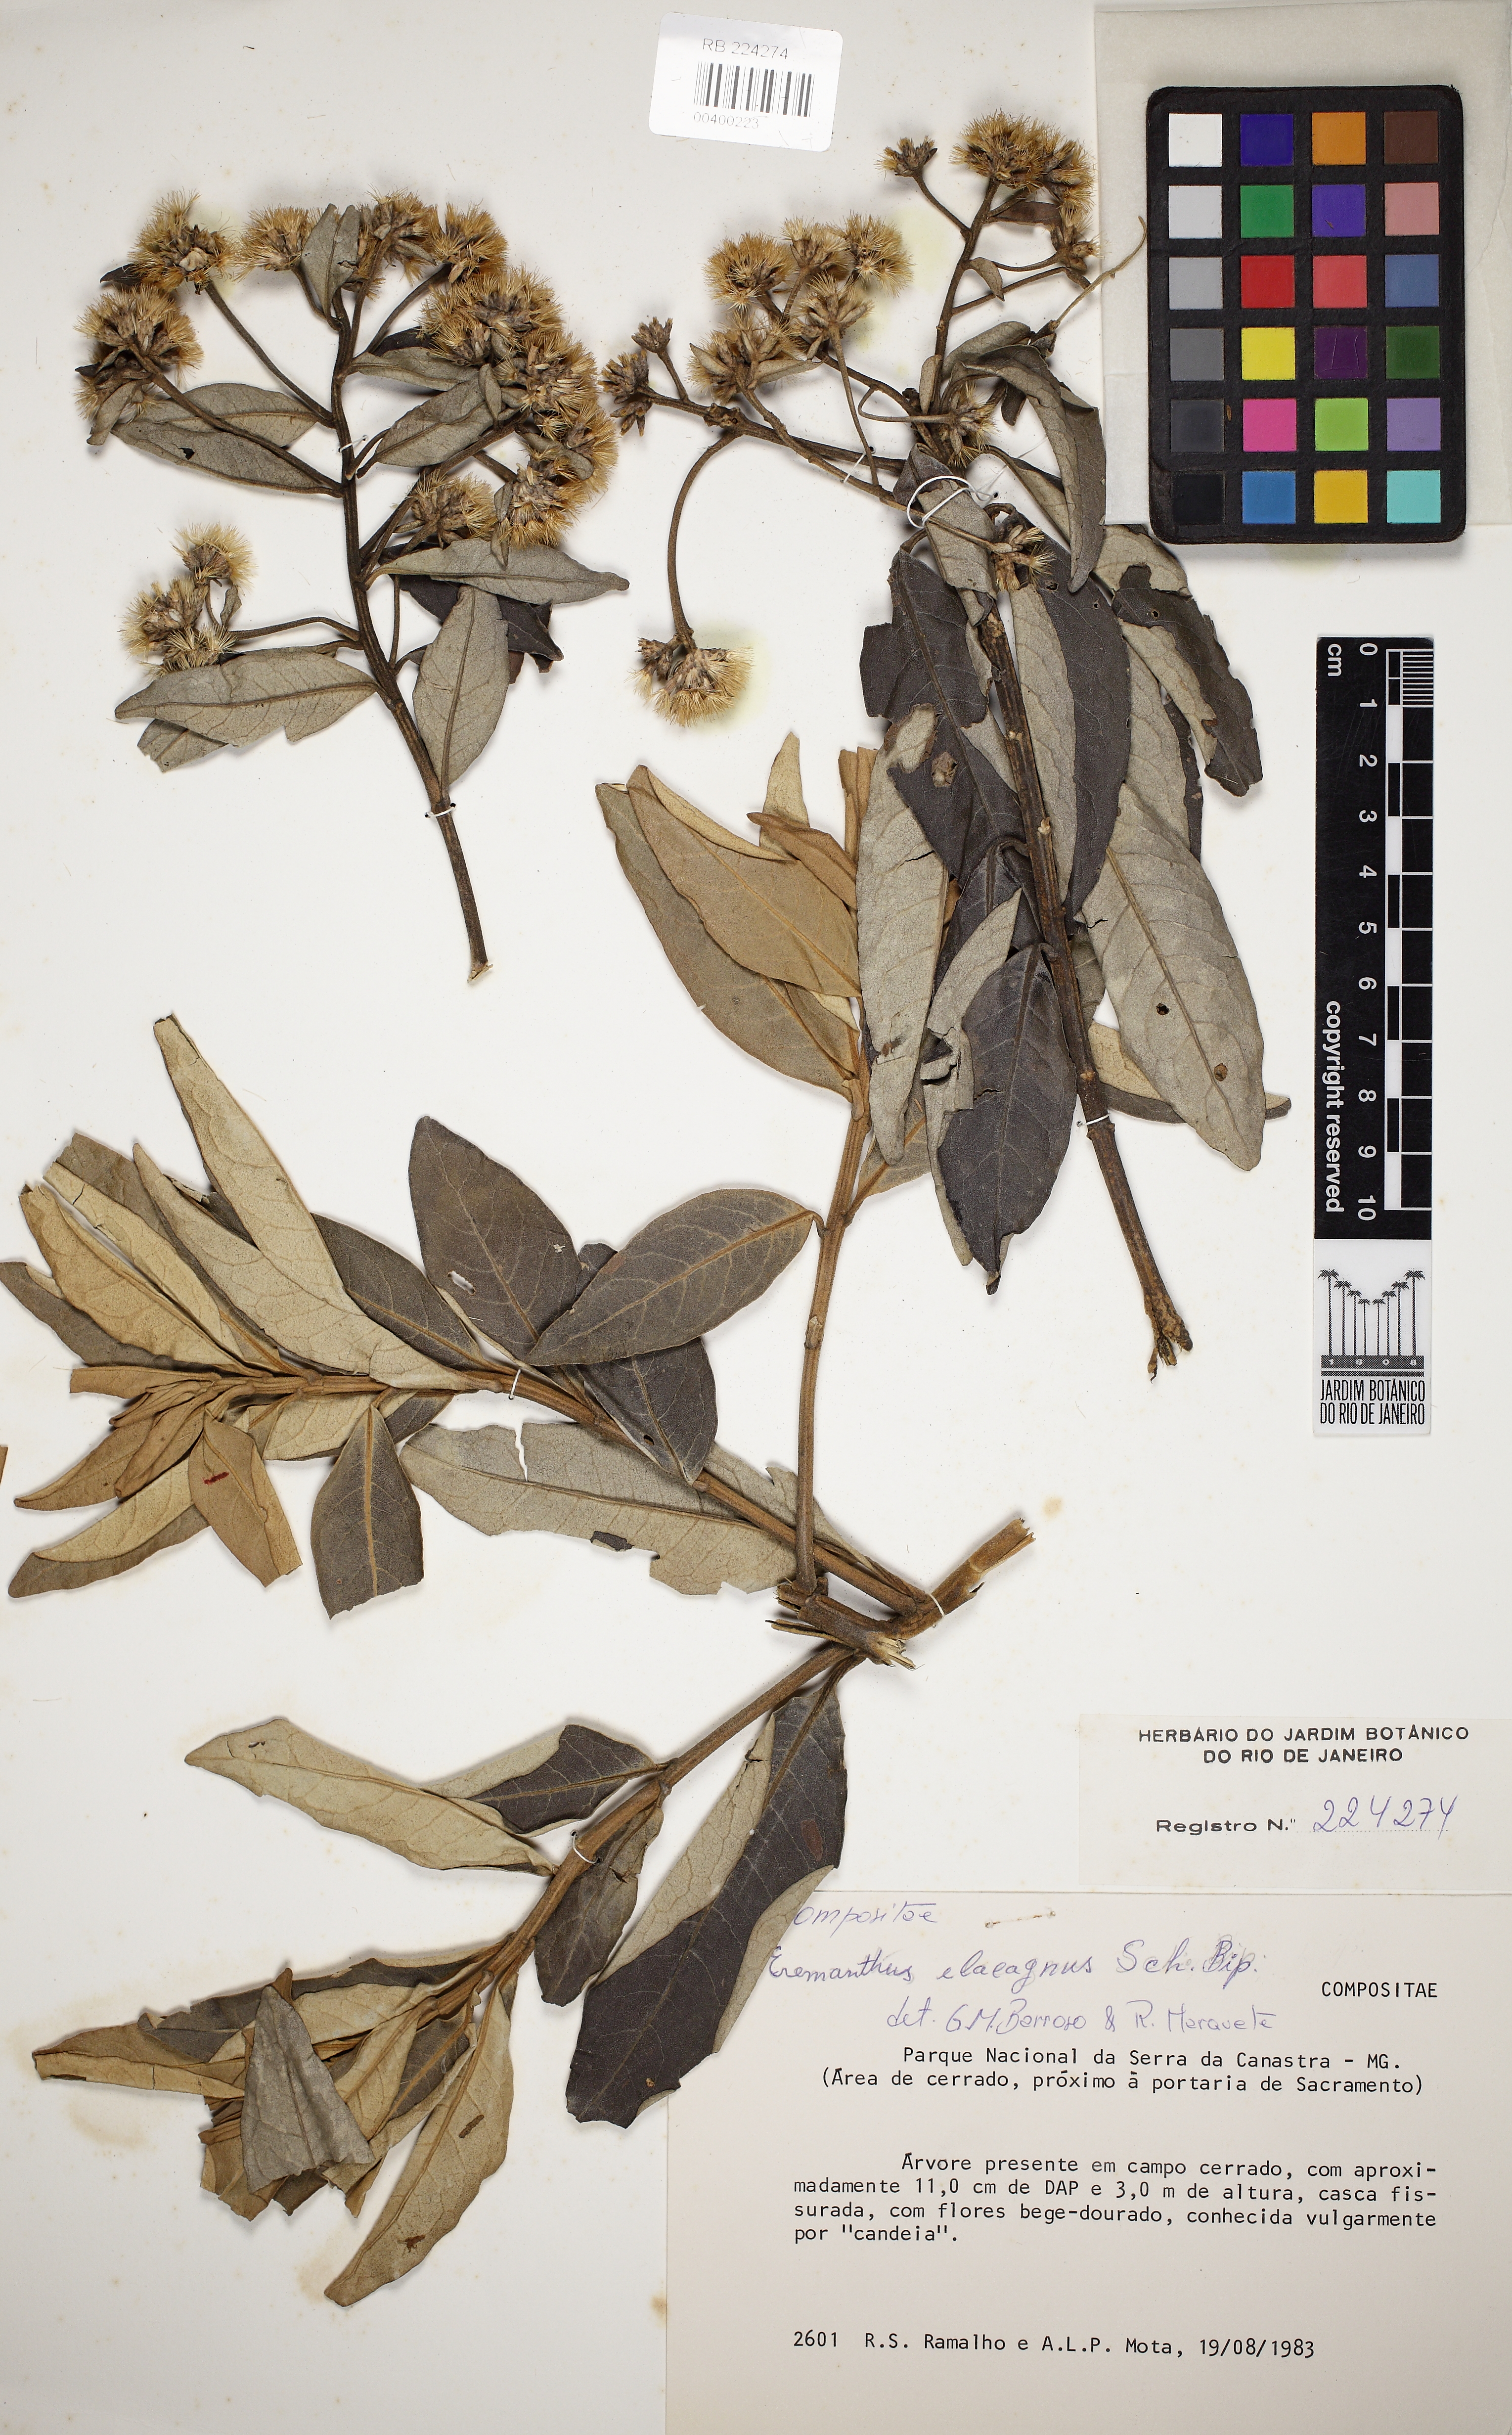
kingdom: Plantae
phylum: Tracheophyta
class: Magnoliopsida
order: Asterales
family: Asteraceae
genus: Eremanthus
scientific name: Eremanthus elaeagnus
